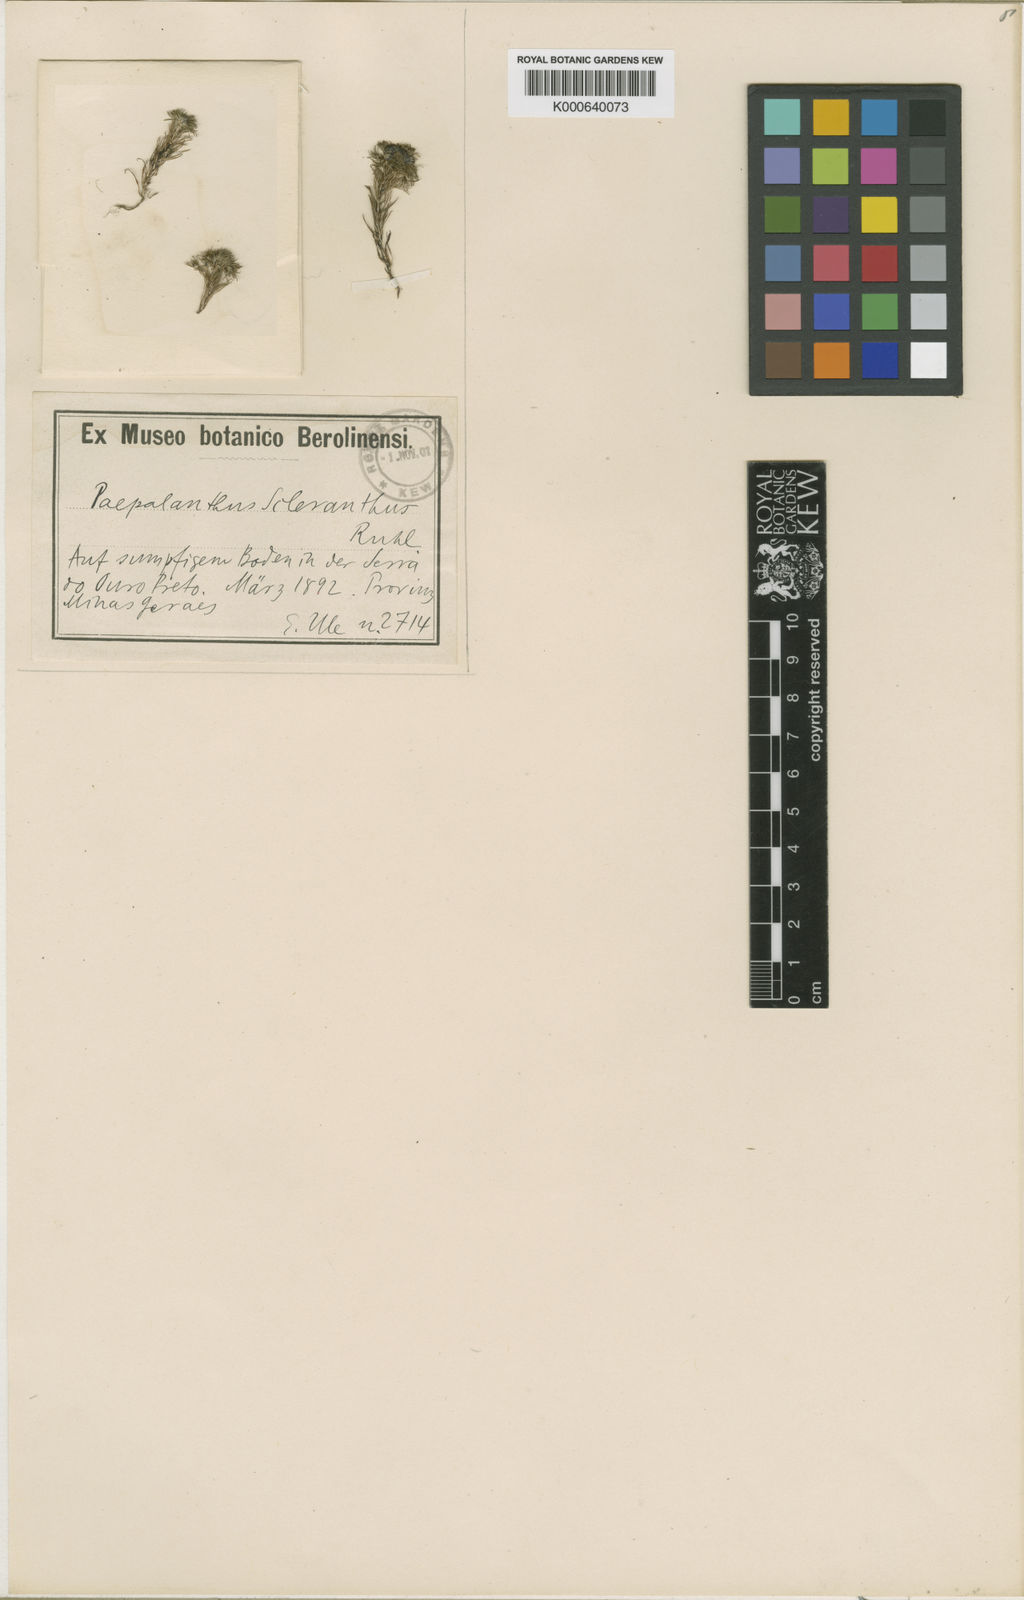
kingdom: Plantae
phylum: Tracheophyta
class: Liliopsida
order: Poales
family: Eriocaulaceae
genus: Paepalanthus
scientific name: Paepalanthus scleranthus
